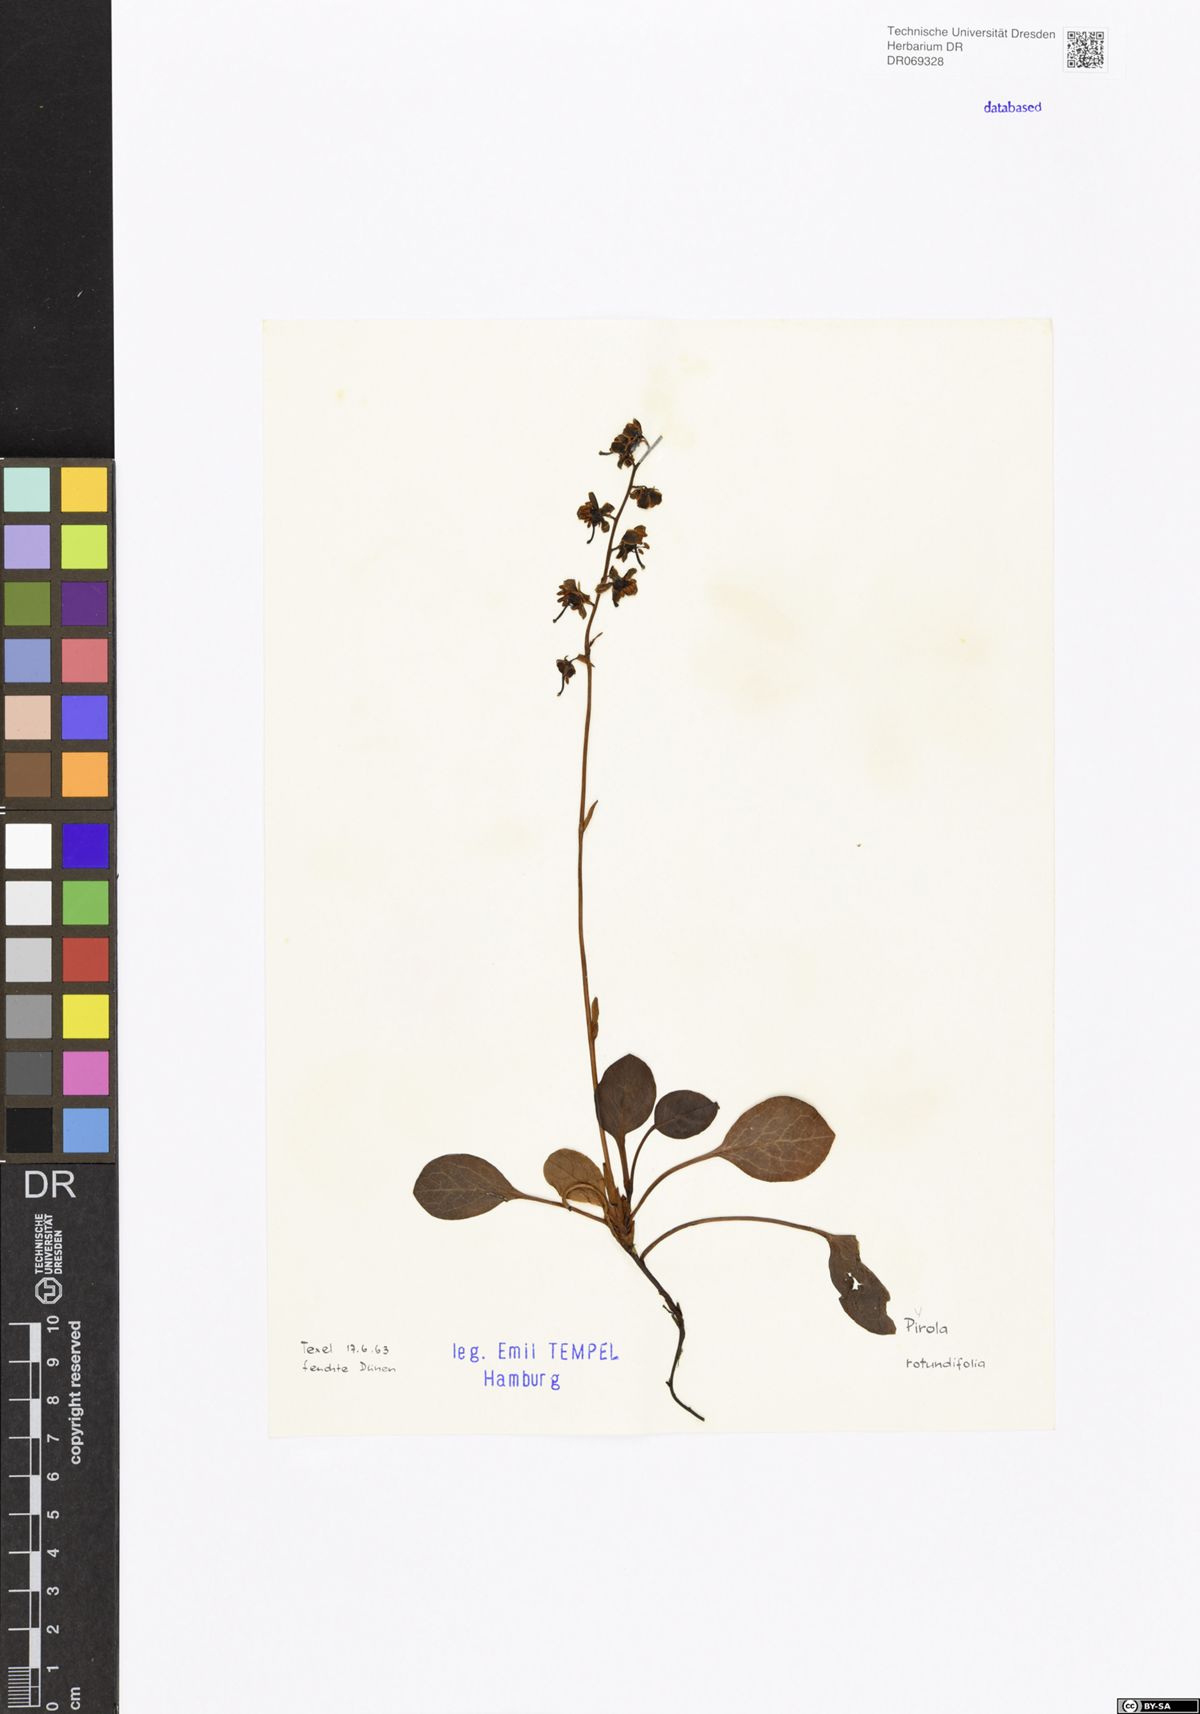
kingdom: Plantae
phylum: Tracheophyta
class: Magnoliopsida
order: Ericales
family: Ericaceae
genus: Pyrola
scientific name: Pyrola rotundifolia
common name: Round-leaved wintergreen
